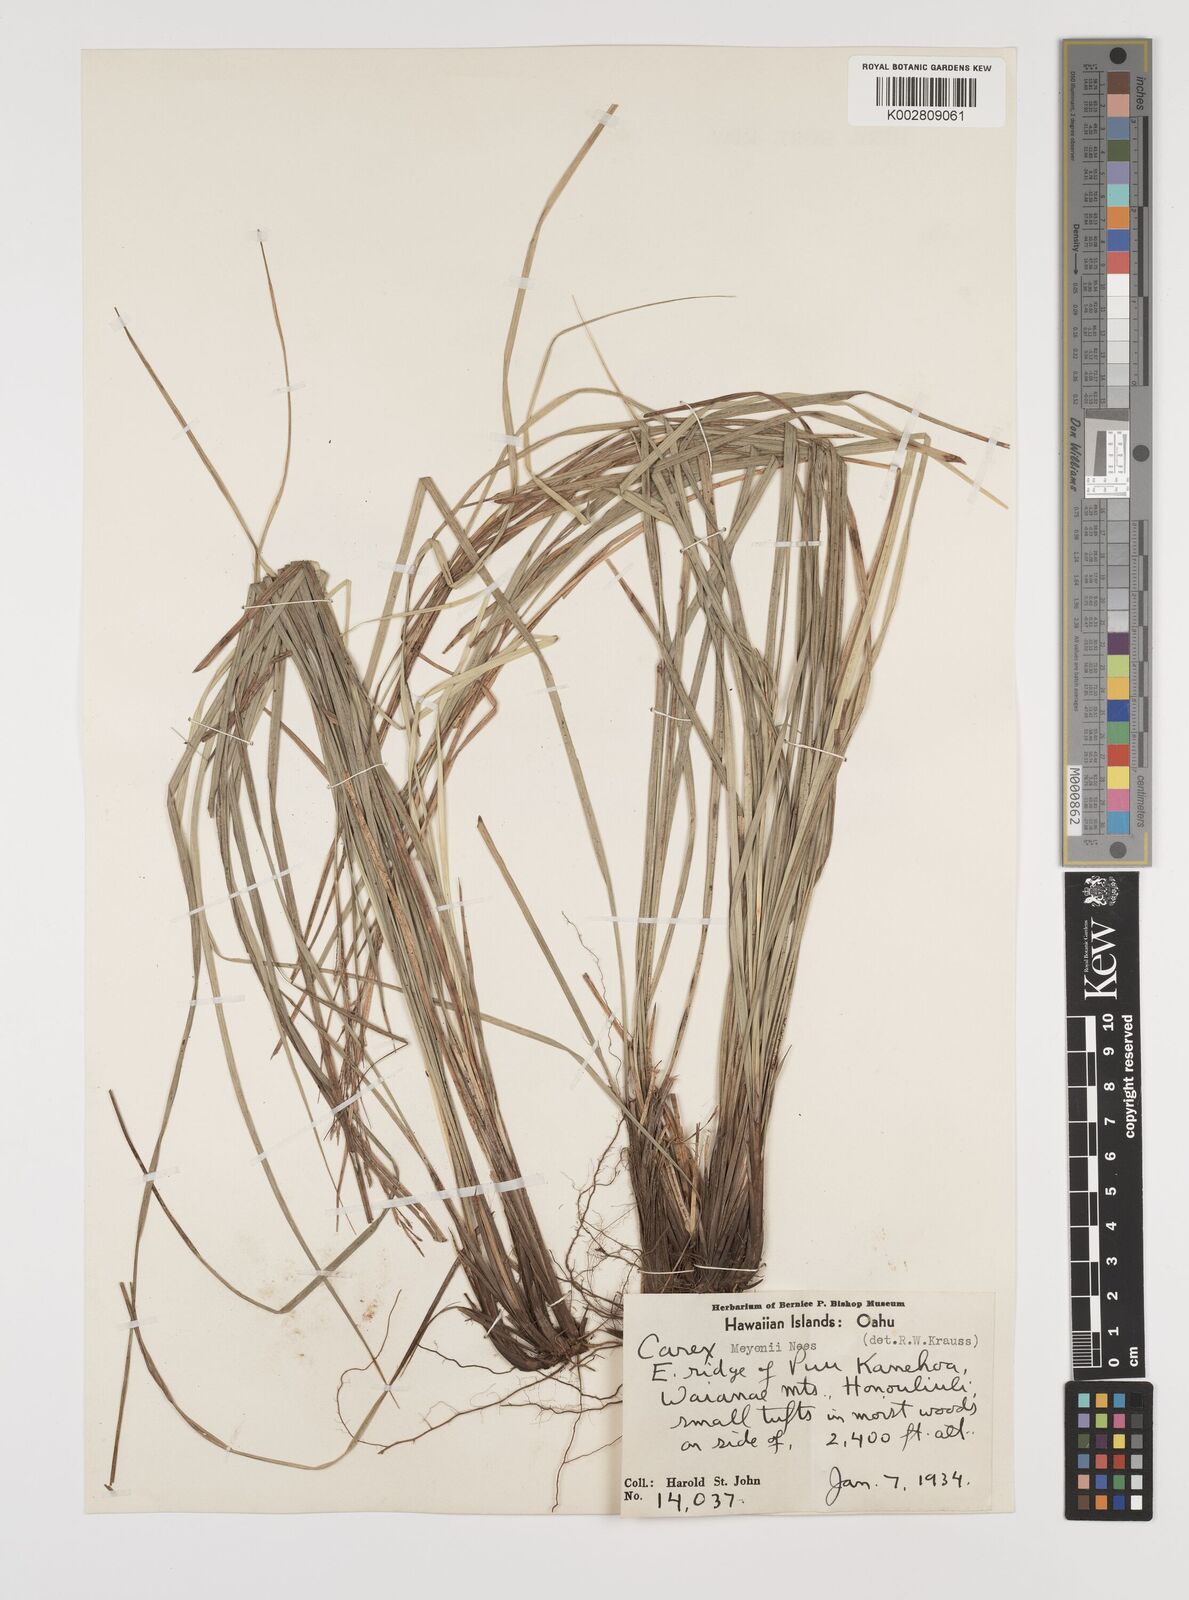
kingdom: Plantae
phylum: Tracheophyta
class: Liliopsida
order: Poales
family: Cyperaceae
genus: Carex
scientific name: Carex brunnea
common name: Greater brown sedge
